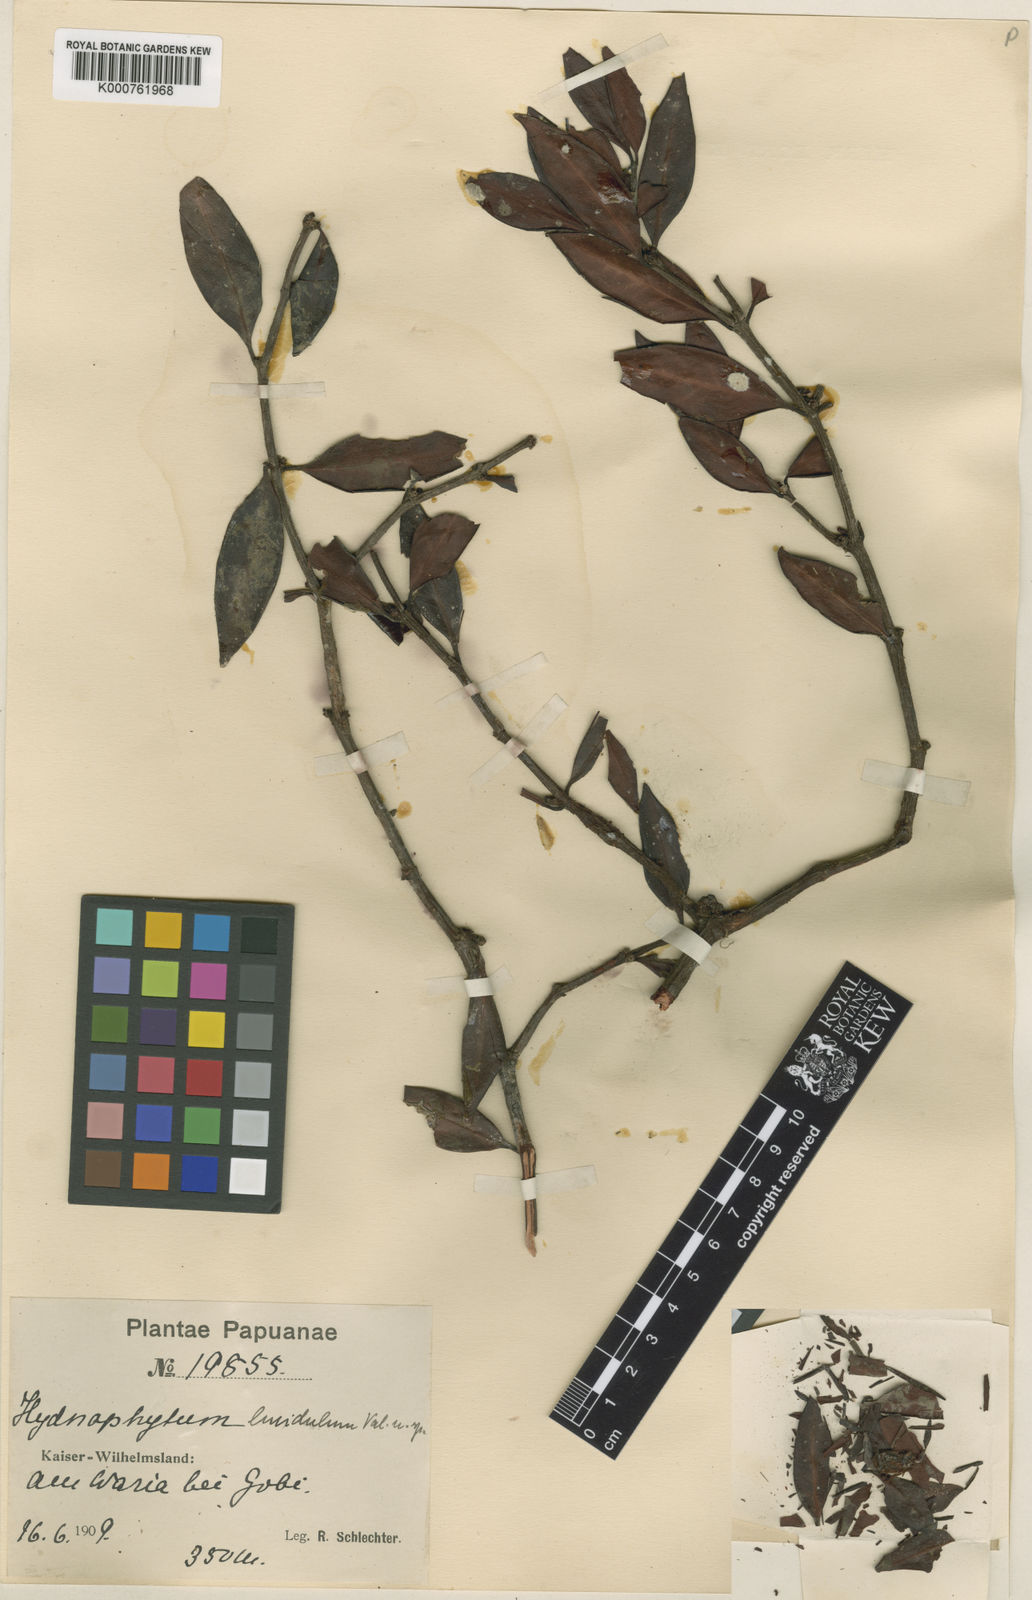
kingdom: Plantae
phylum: Tracheophyta
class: Magnoliopsida
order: Gentianales
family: Rubiaceae
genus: Hydnophytum
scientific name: Hydnophytum lucidulum
